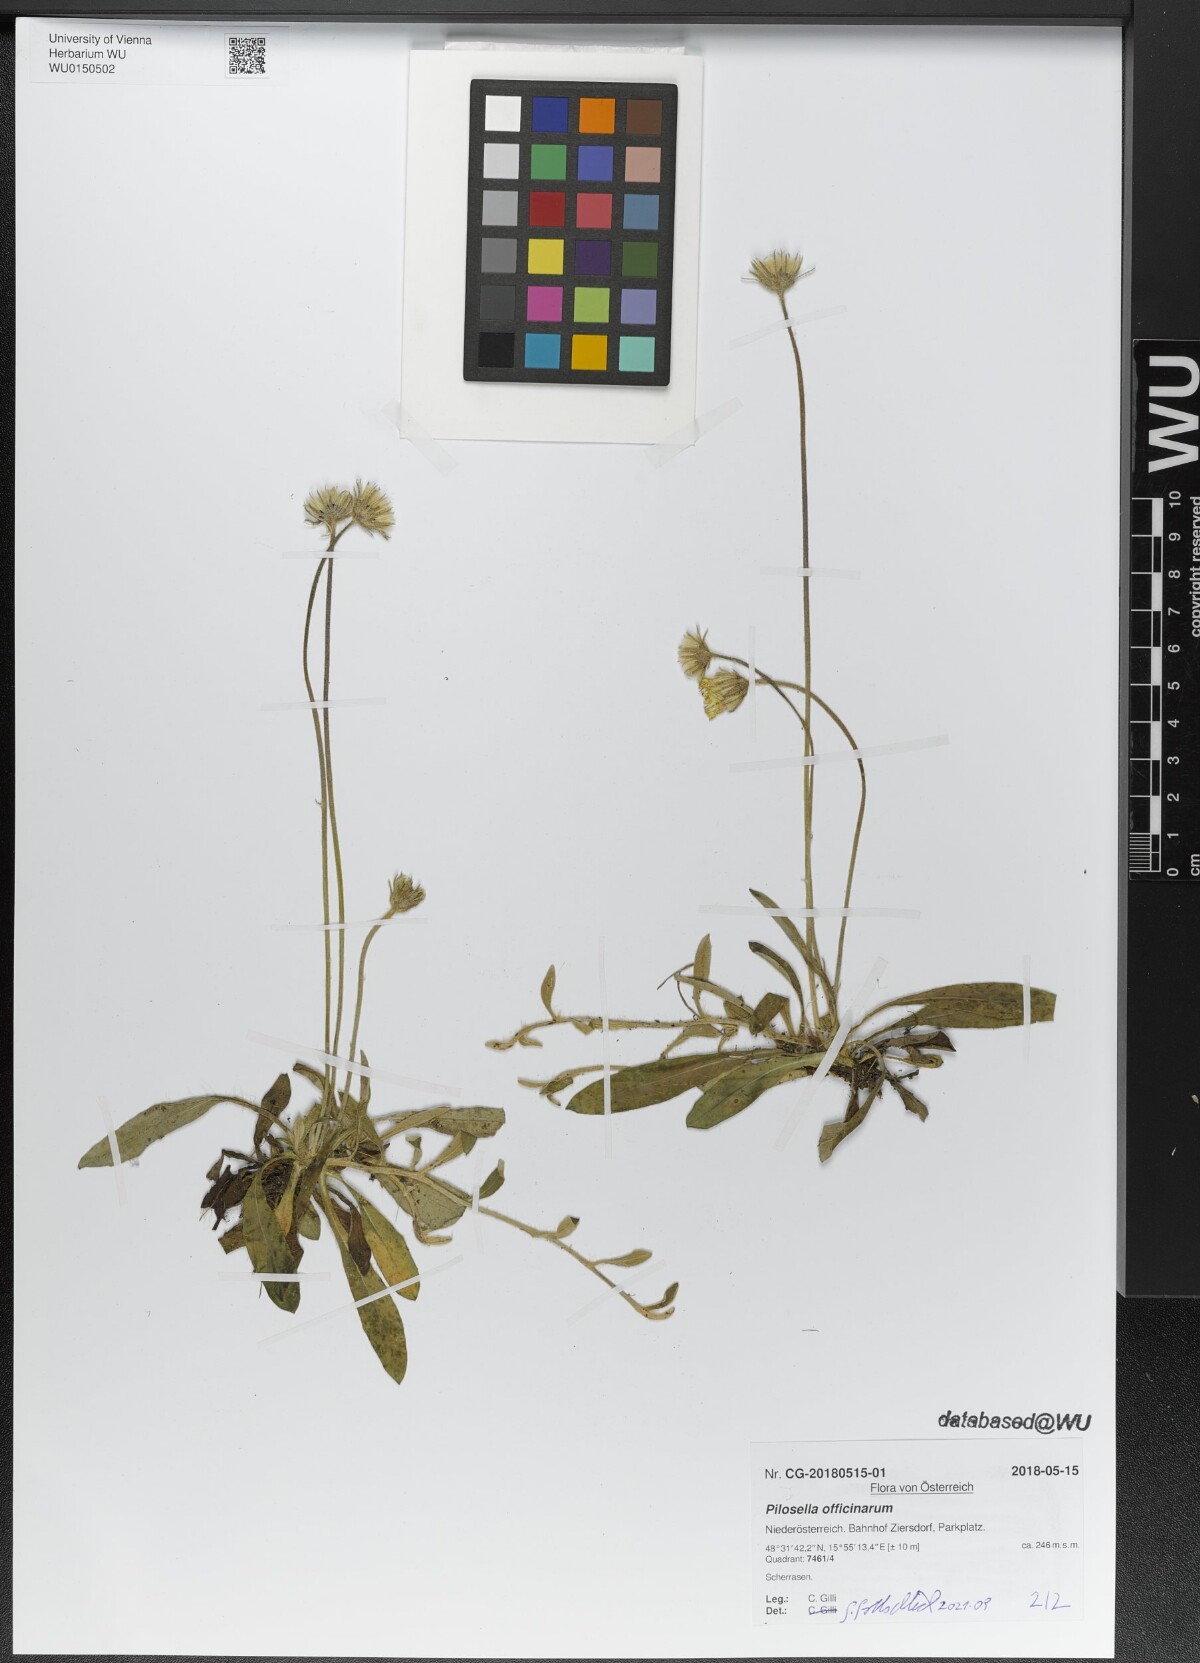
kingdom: Plantae
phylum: Tracheophyta
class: Magnoliopsida
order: Asterales
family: Asteraceae
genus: Pilosella
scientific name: Pilosella officinarum
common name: Mouse-ear hawkweed
